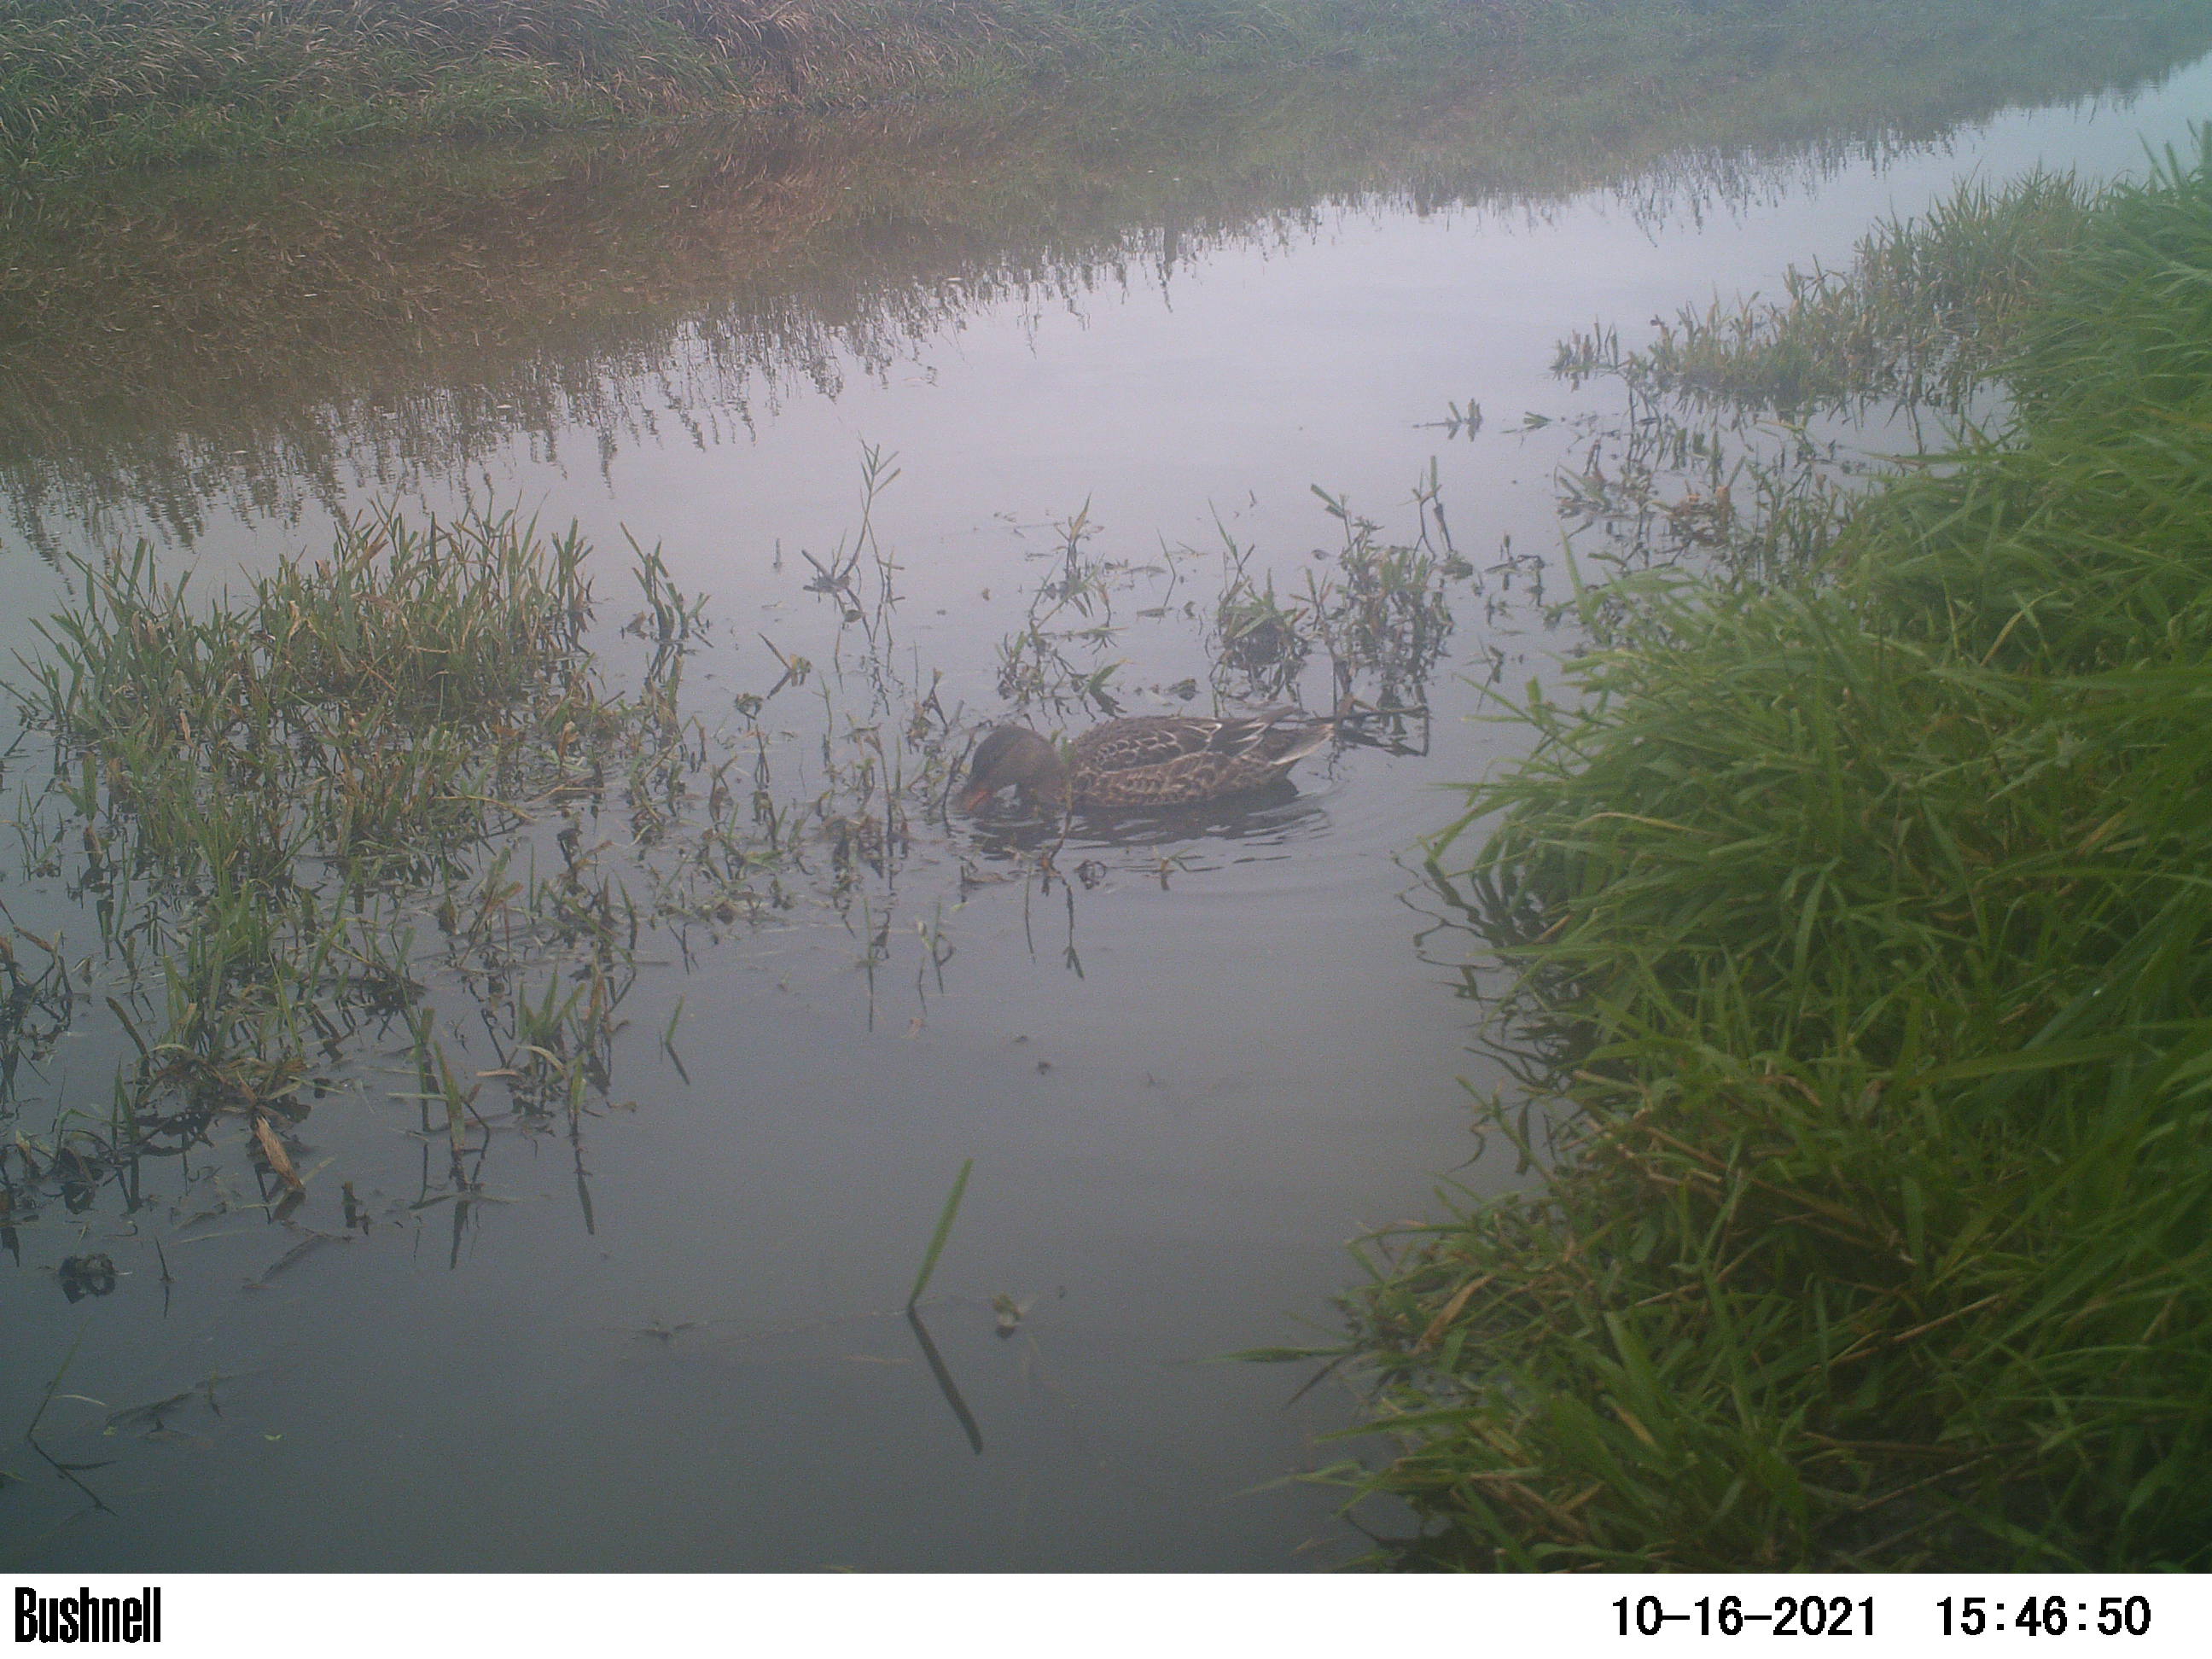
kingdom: Animalia
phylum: Chordata
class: Aves
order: Anseriformes
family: Anatidae
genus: Anas
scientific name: Anas
